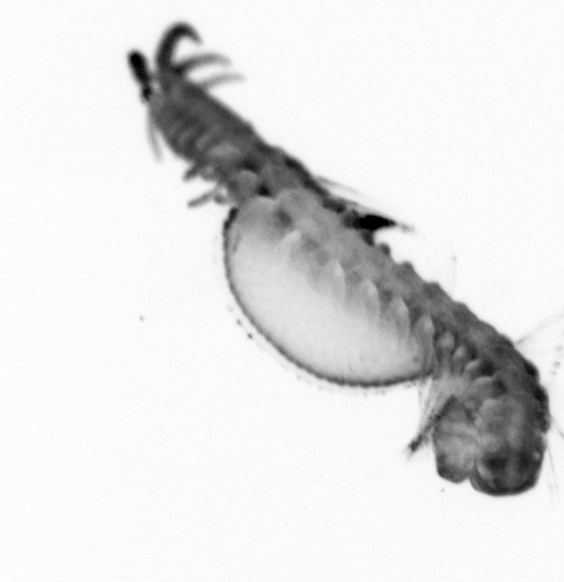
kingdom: Animalia
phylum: Annelida
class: Polychaeta
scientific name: Polychaeta
